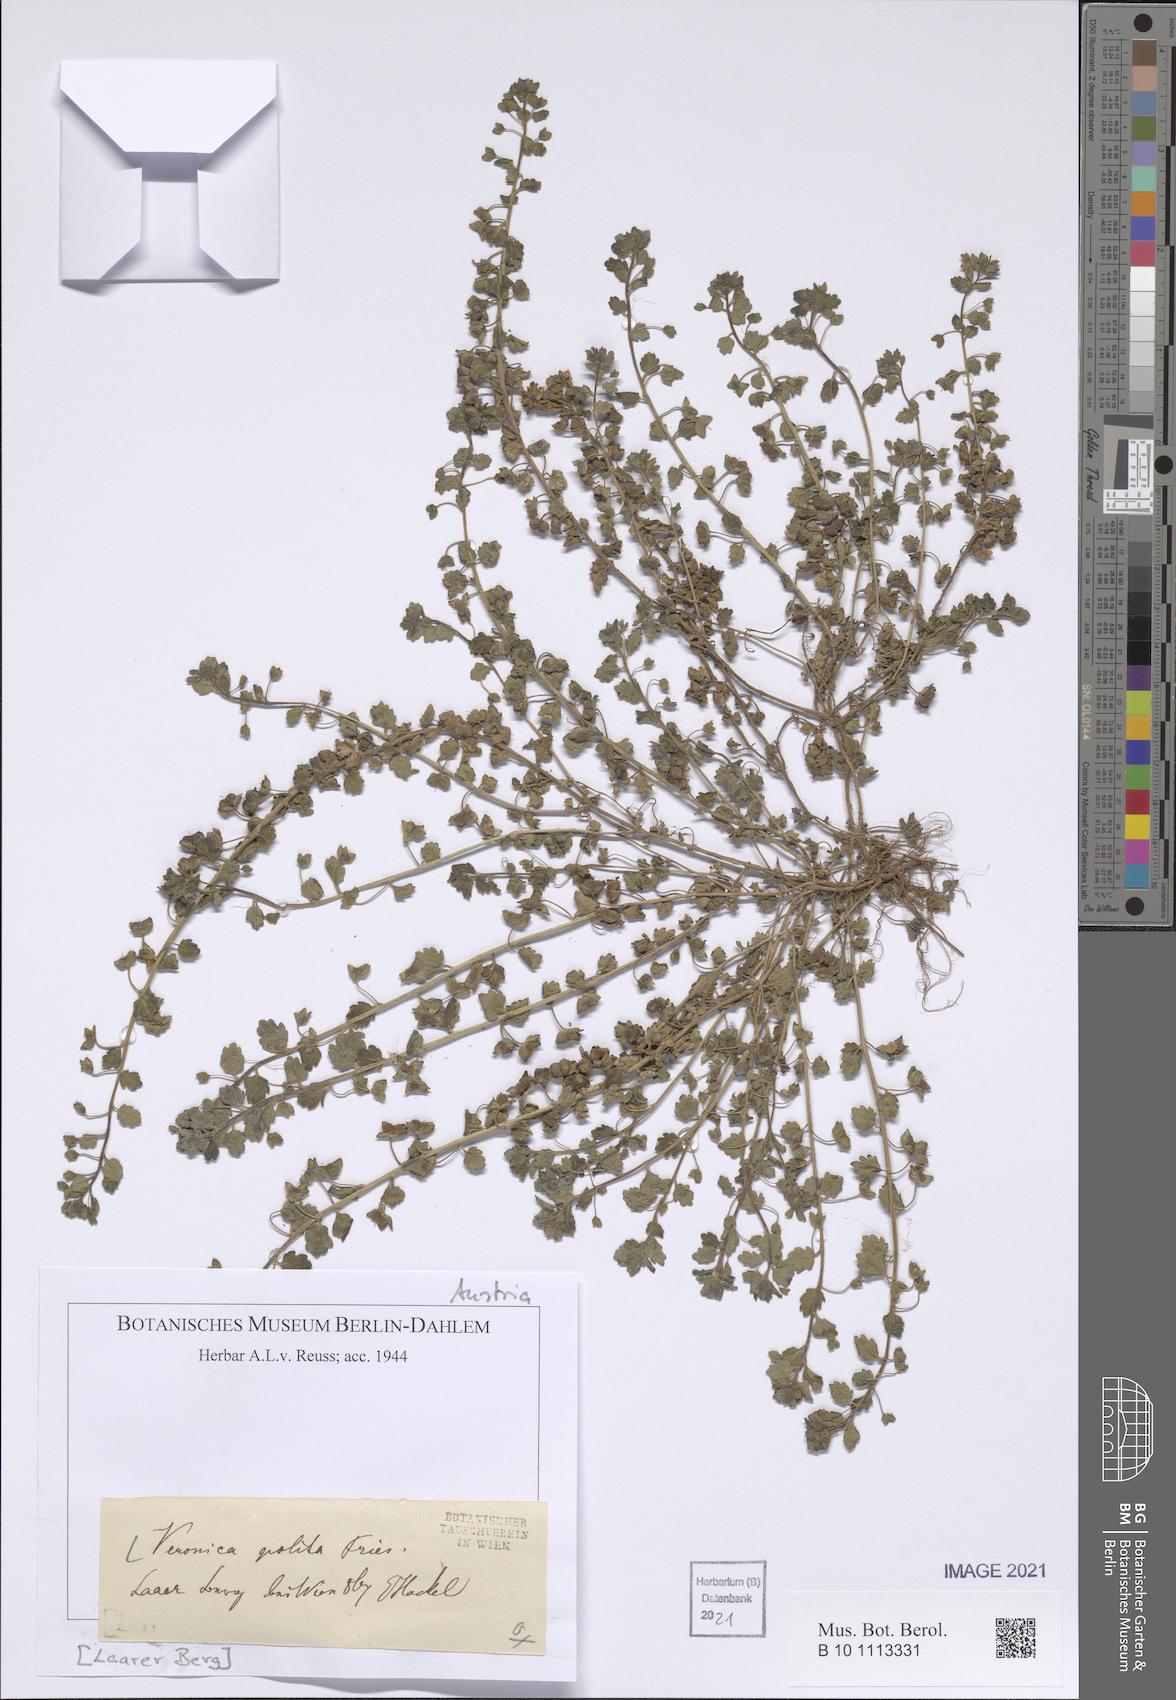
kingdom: Plantae
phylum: Tracheophyta
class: Magnoliopsida
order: Lamiales
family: Plantaginaceae
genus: Veronica
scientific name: Veronica polita
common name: Grey field-speedwell
